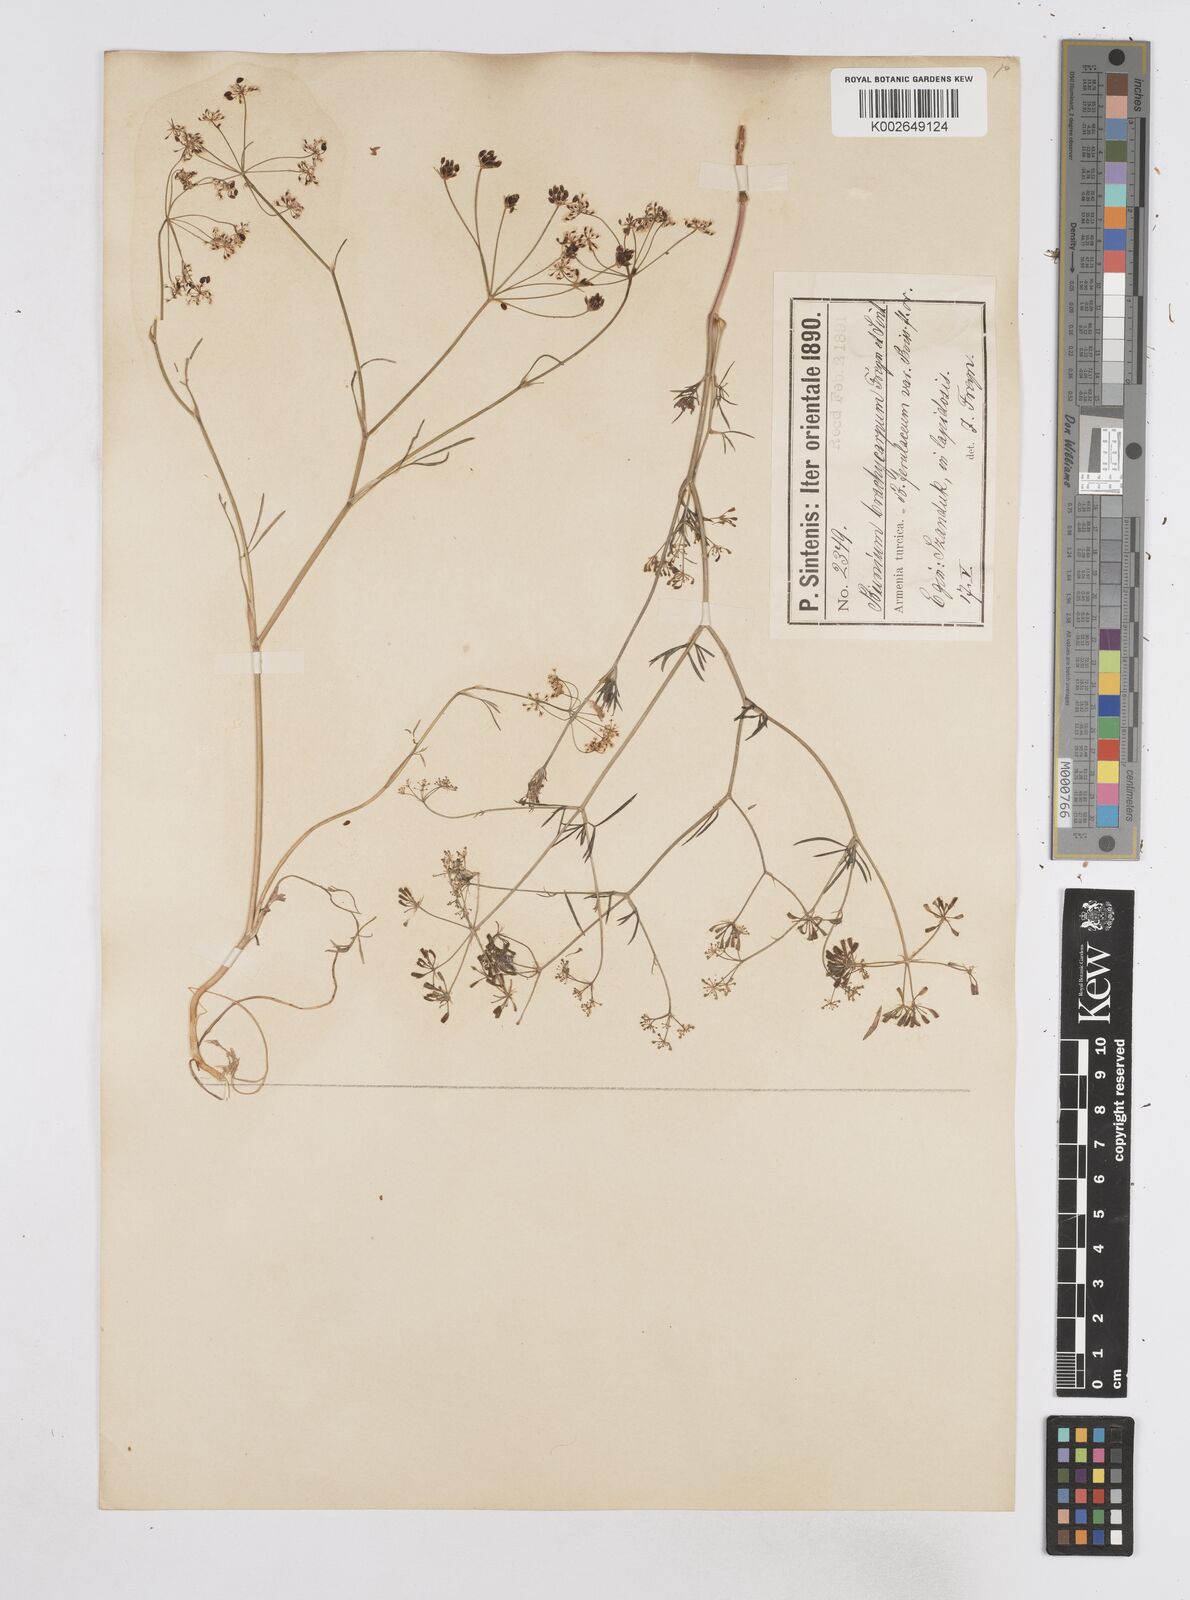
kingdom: Plantae
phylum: Tracheophyta
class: Magnoliopsida
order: Apiales
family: Apiaceae
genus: Bunium
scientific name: Bunium ferulaceum
